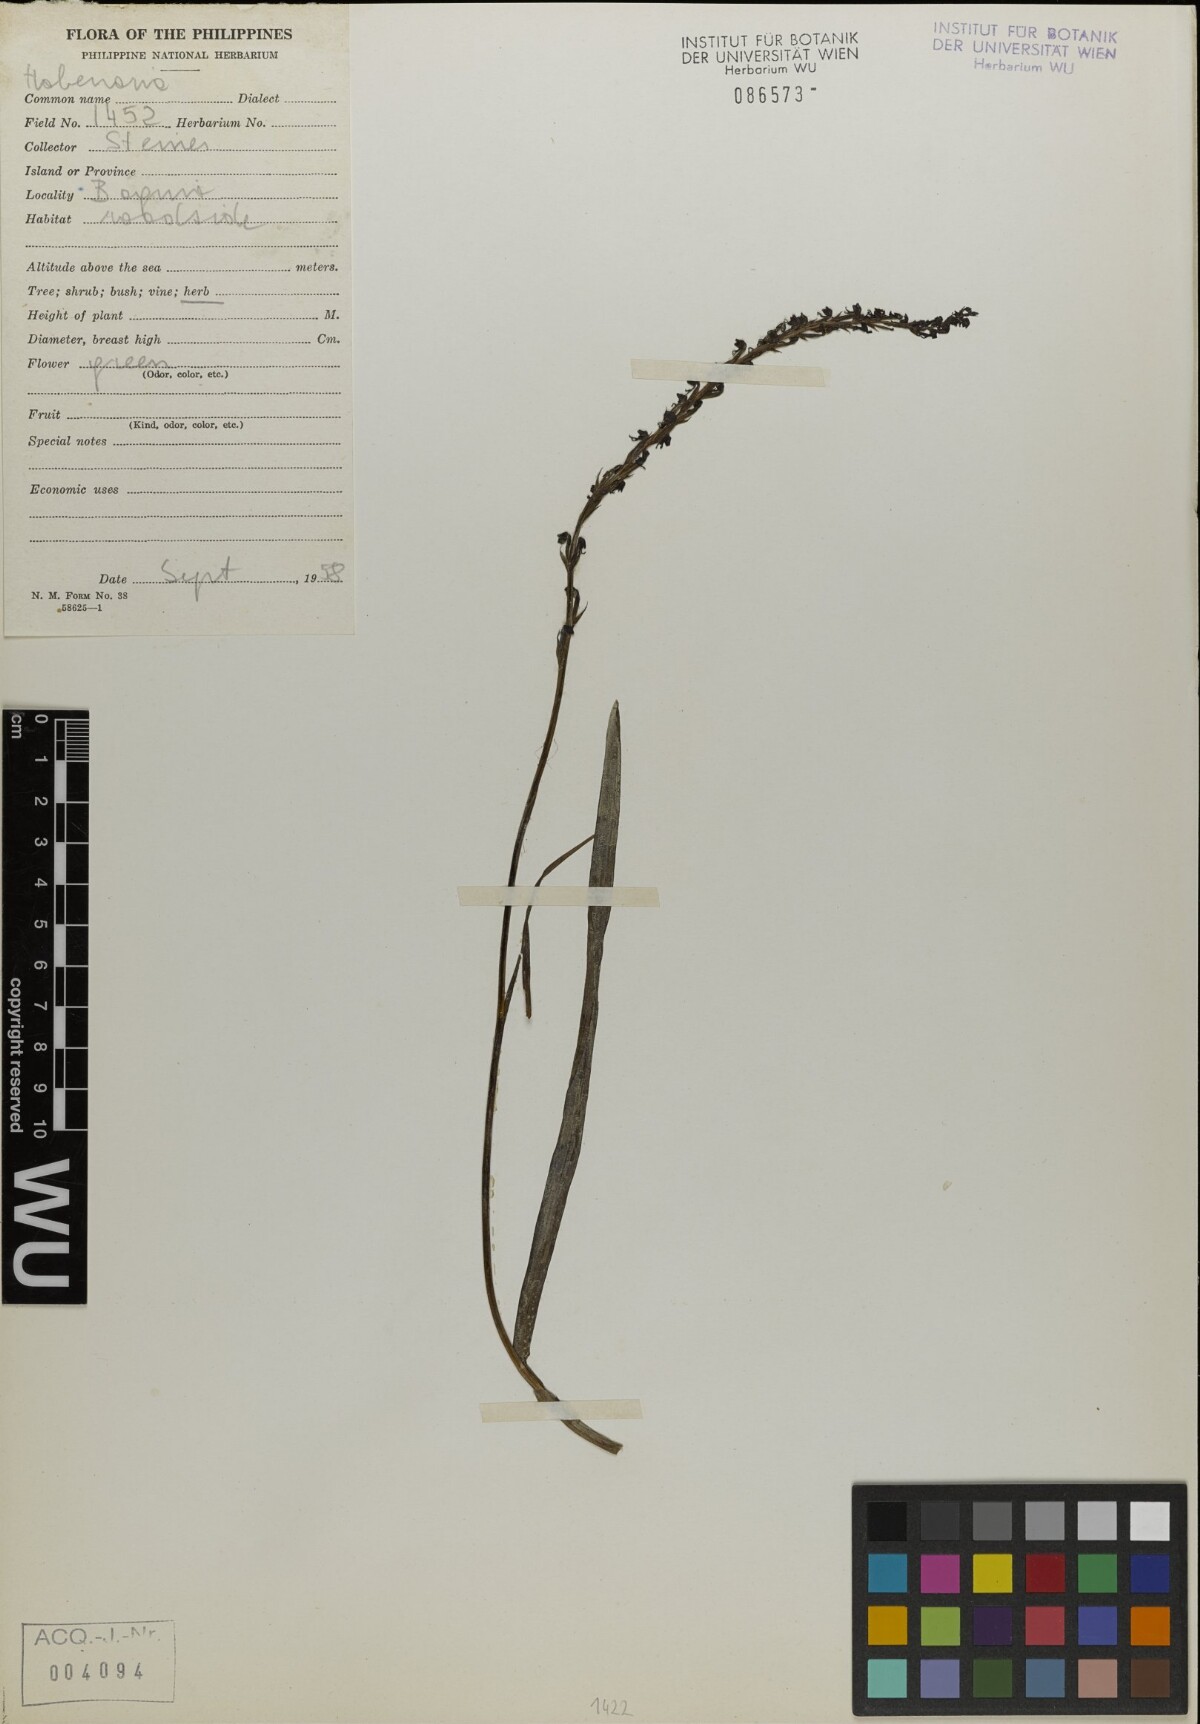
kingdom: Plantae
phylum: Tracheophyta
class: Liliopsida
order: Asparagales
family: Orchidaceae
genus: Habenaria
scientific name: Habenaria
